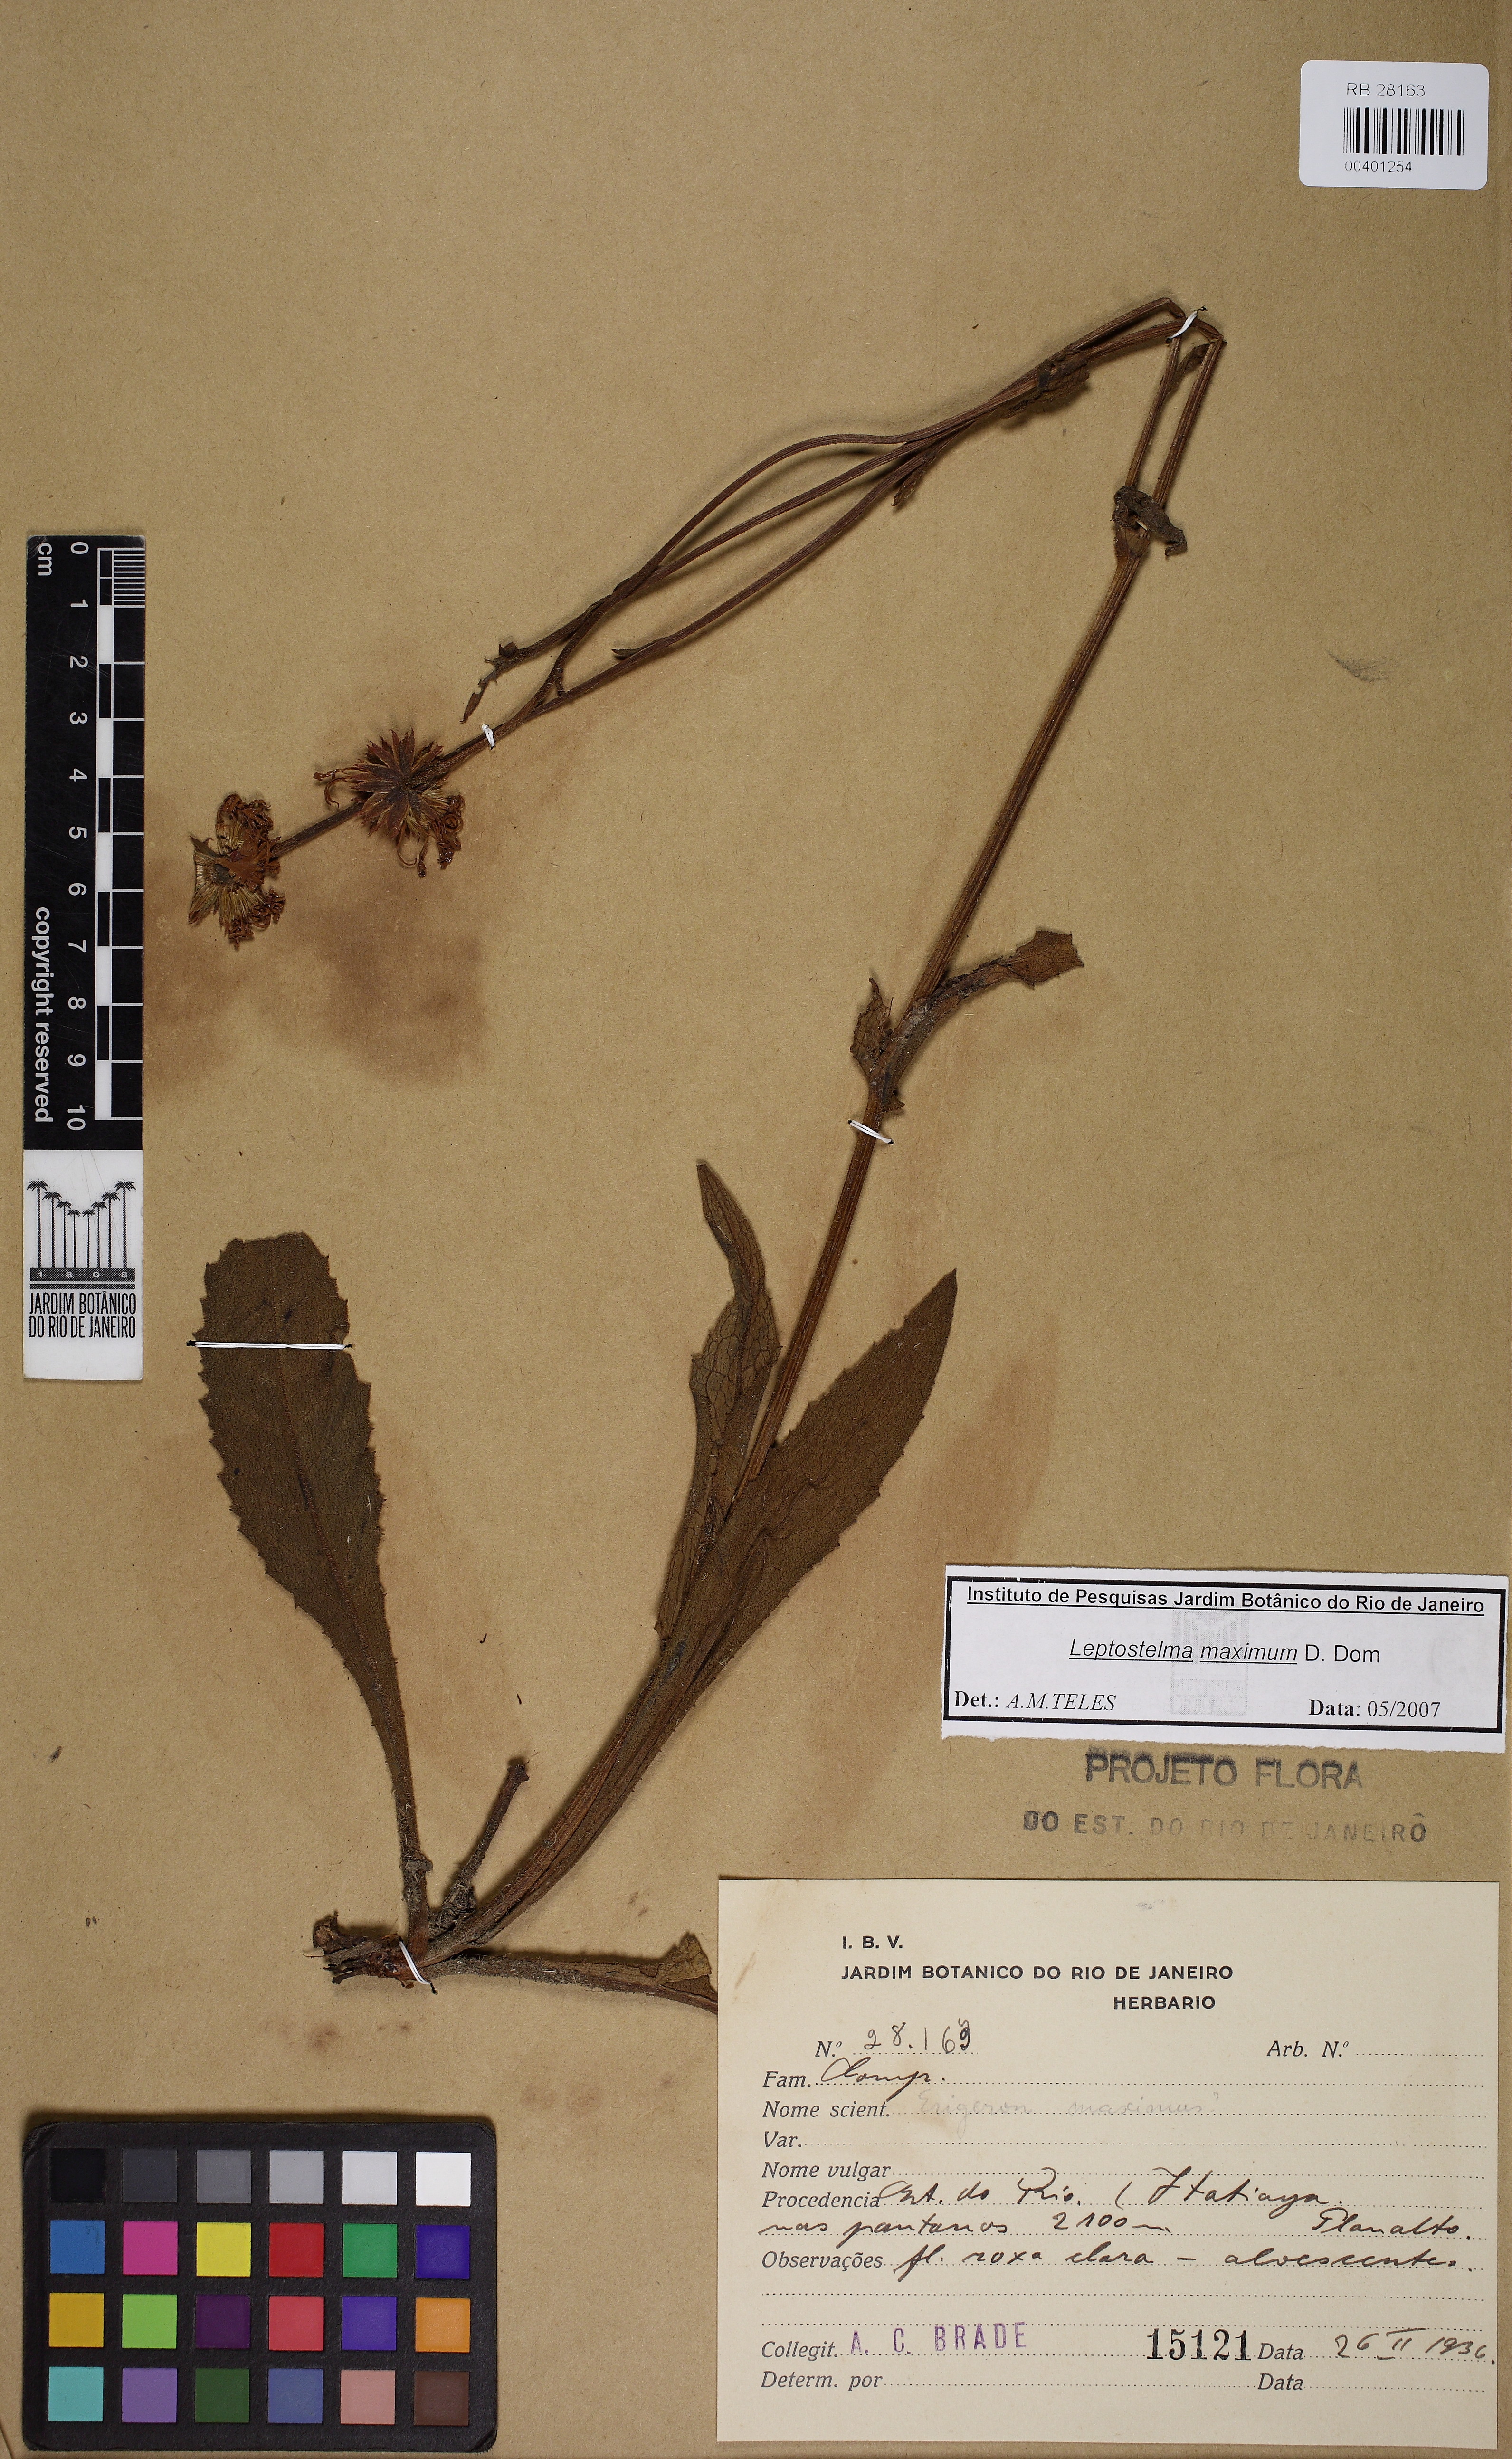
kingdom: Plantae
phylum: Tracheophyta
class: Magnoliopsida
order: Asterales
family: Asteraceae
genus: Leptostelma
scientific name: Leptostelma maxima
